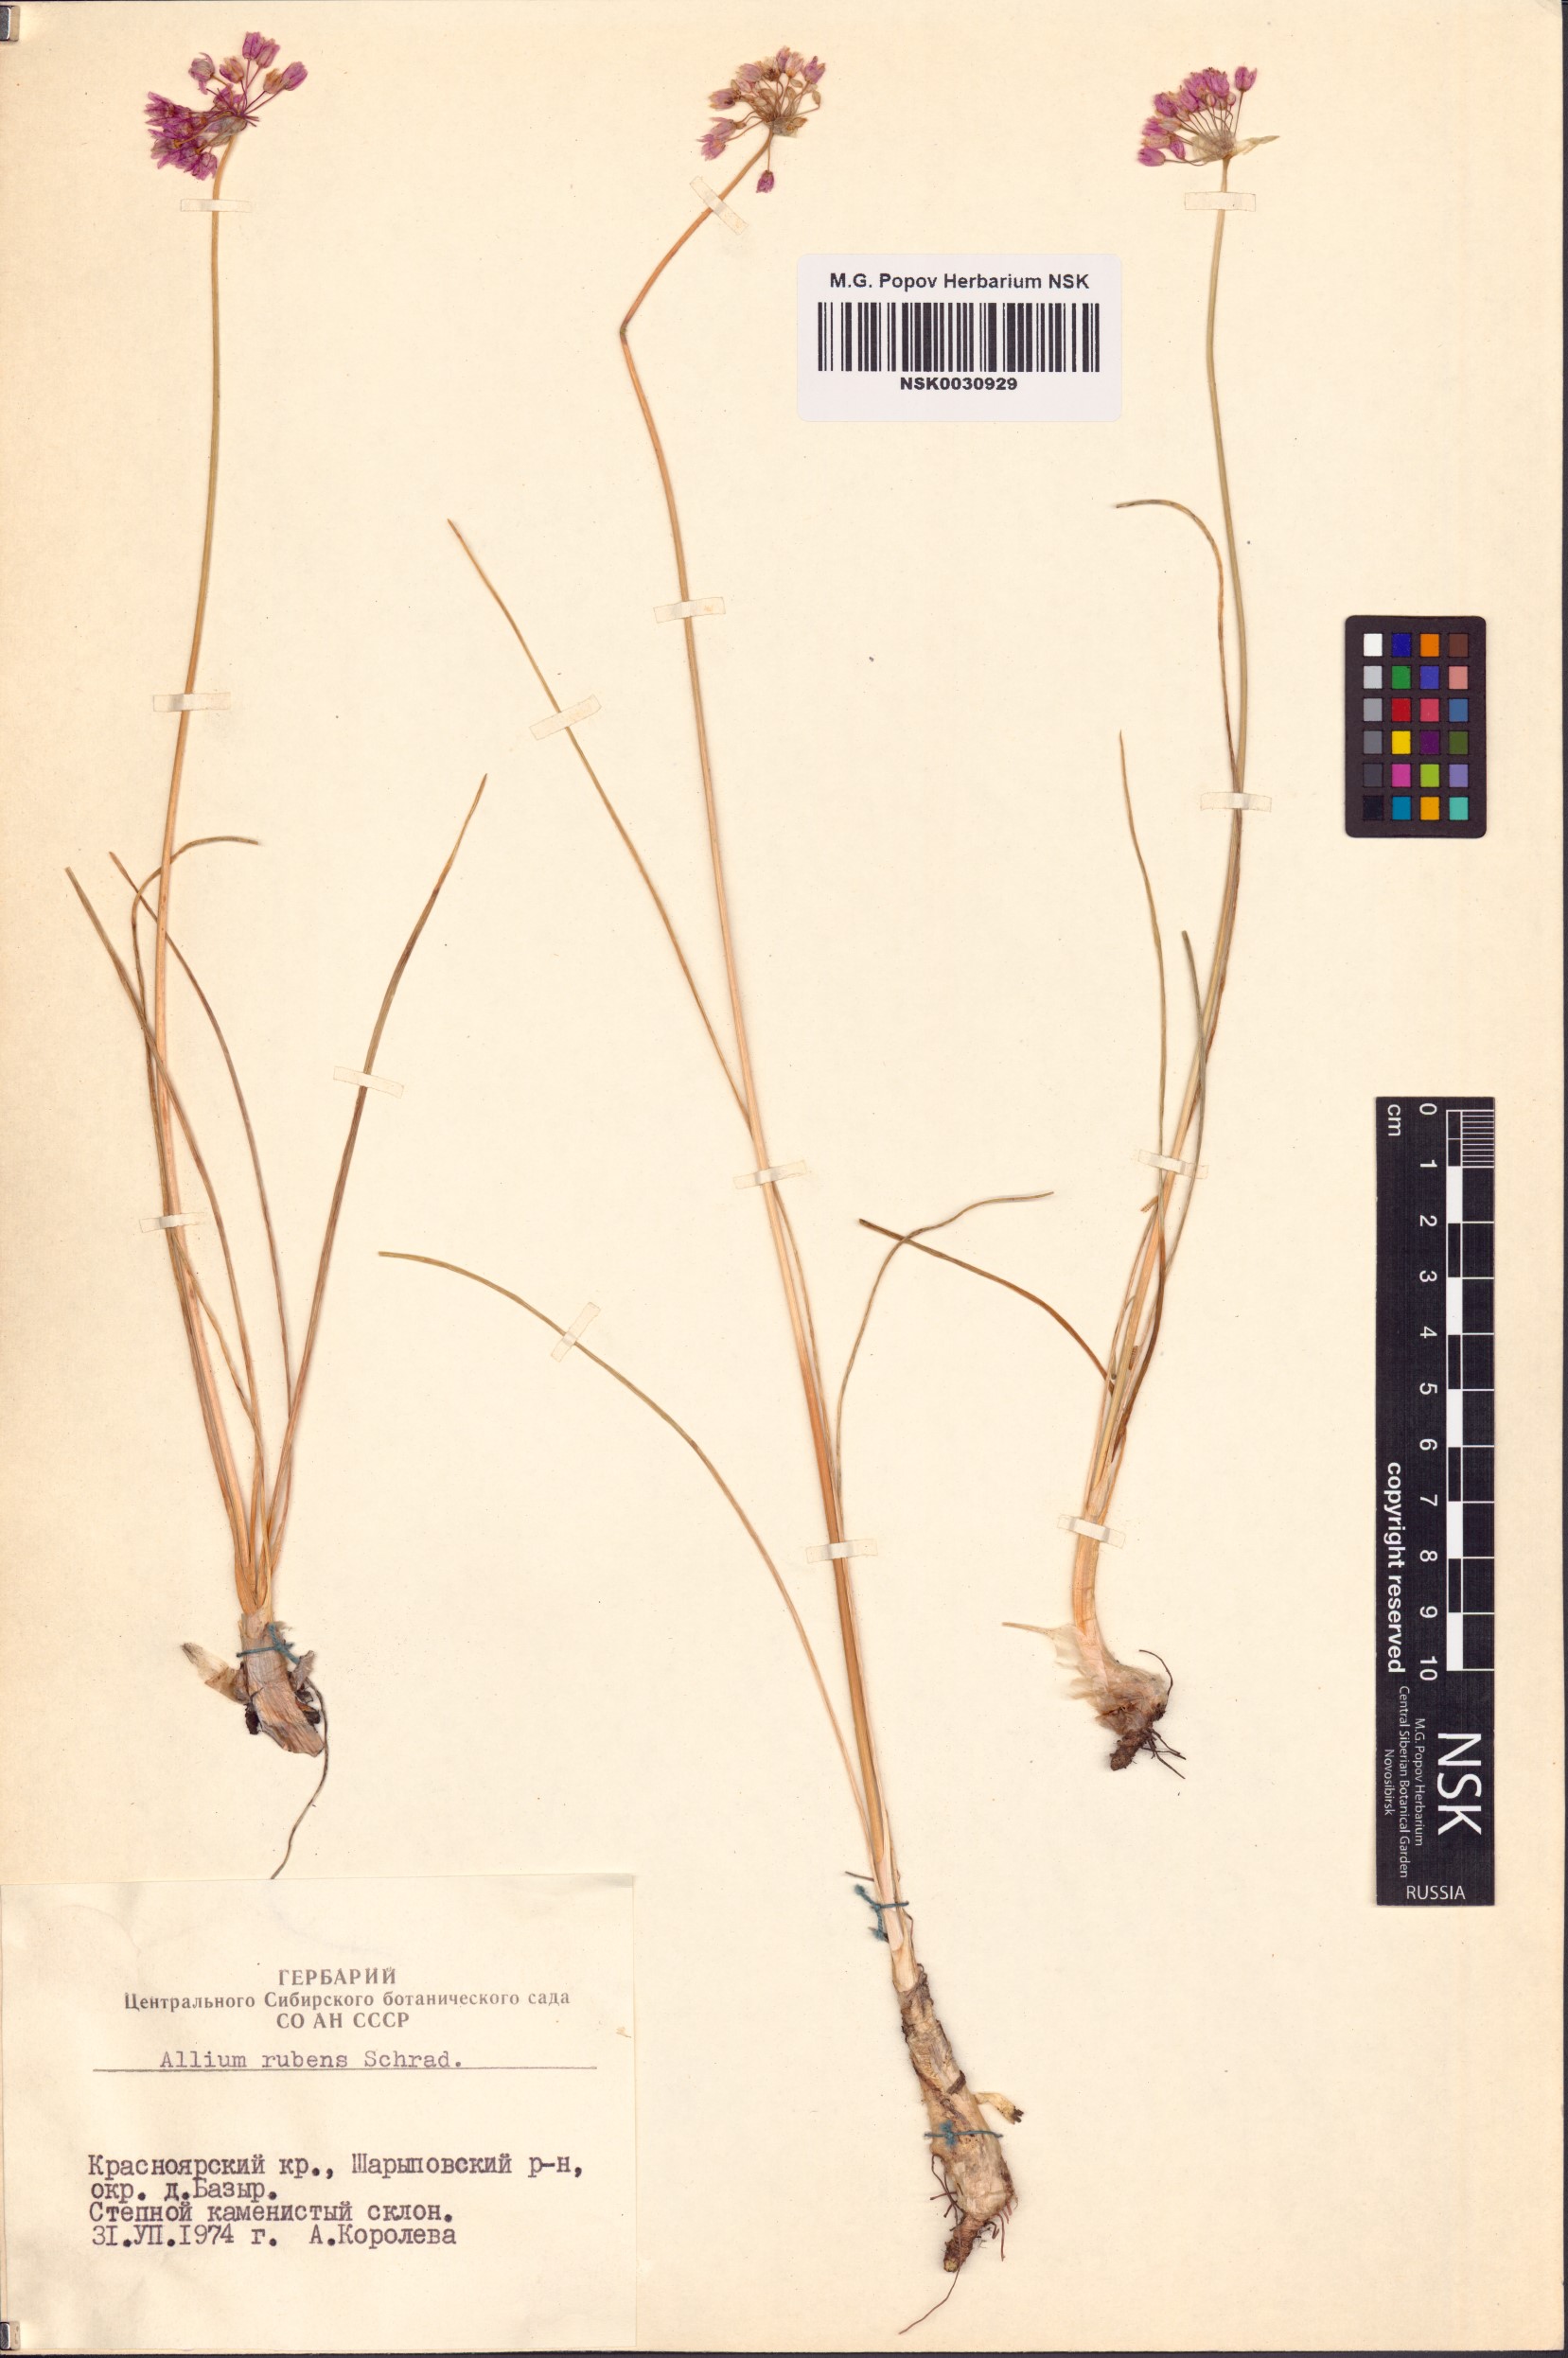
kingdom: Plantae
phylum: Tracheophyta
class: Liliopsida
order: Asparagales
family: Amaryllidaceae
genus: Allium
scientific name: Allium rubens
